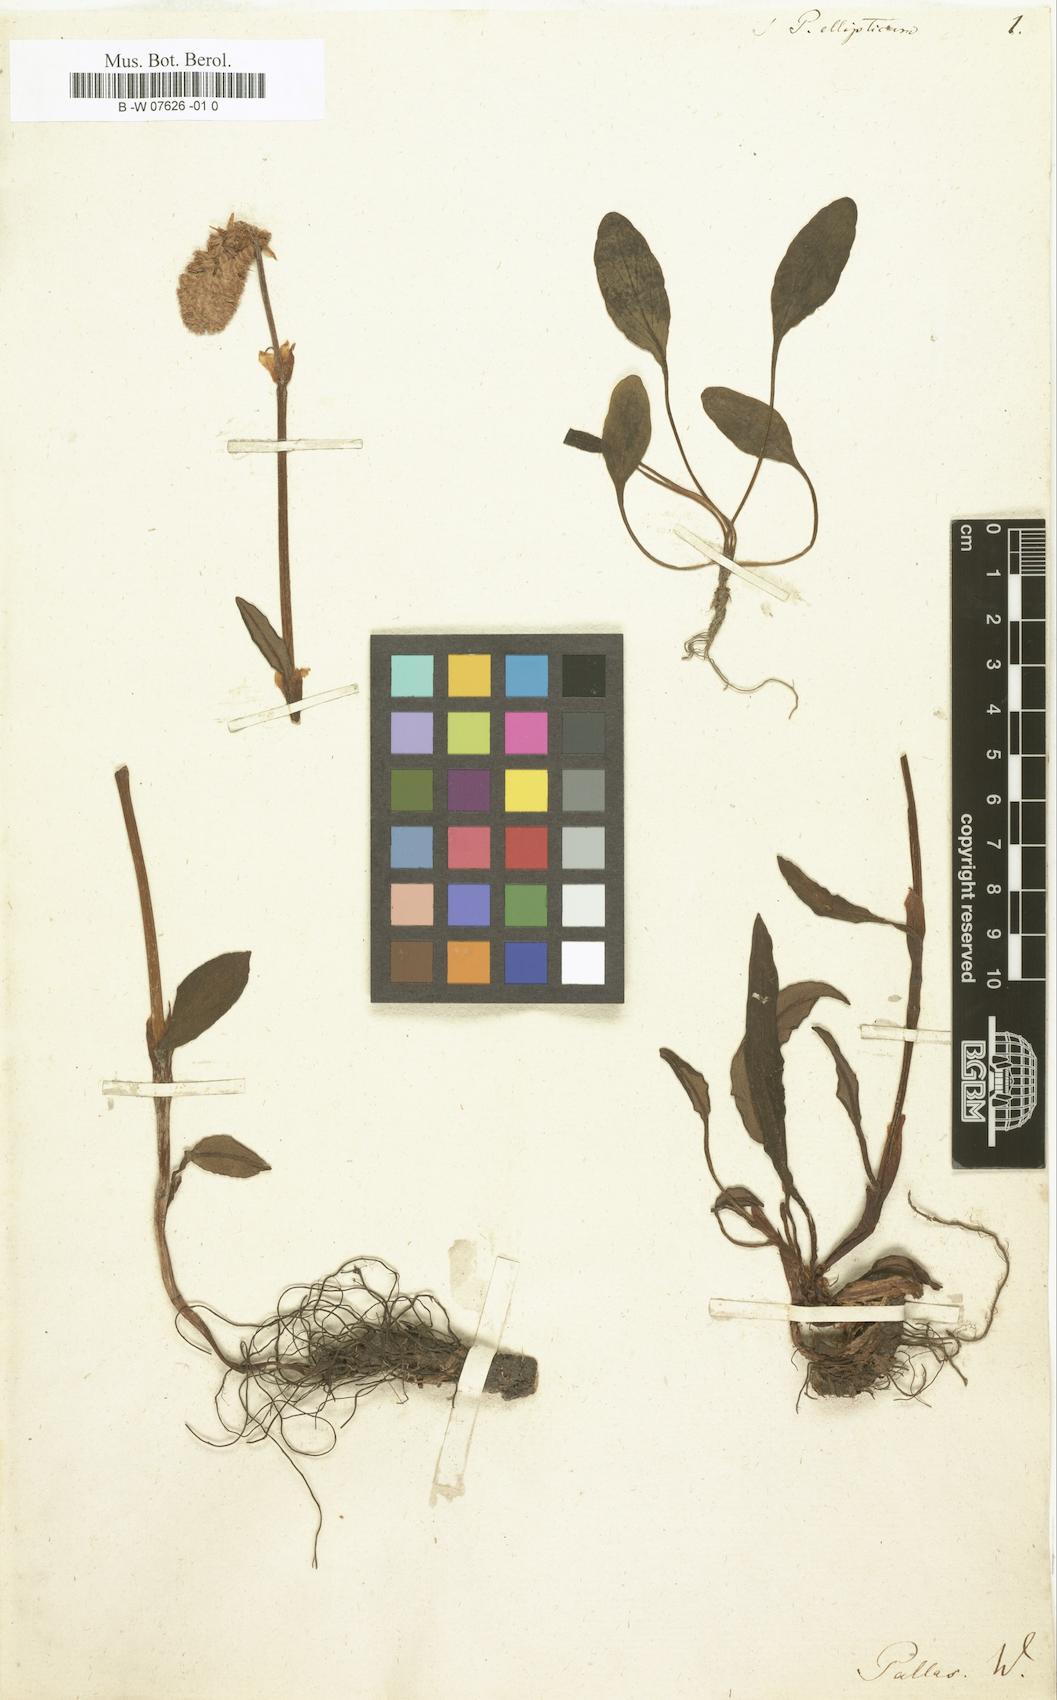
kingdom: Plantae
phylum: Tracheophyta
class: Magnoliopsida
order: Caryophyllales
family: Polygonaceae
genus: Bistorta
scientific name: Bistorta elliptica
